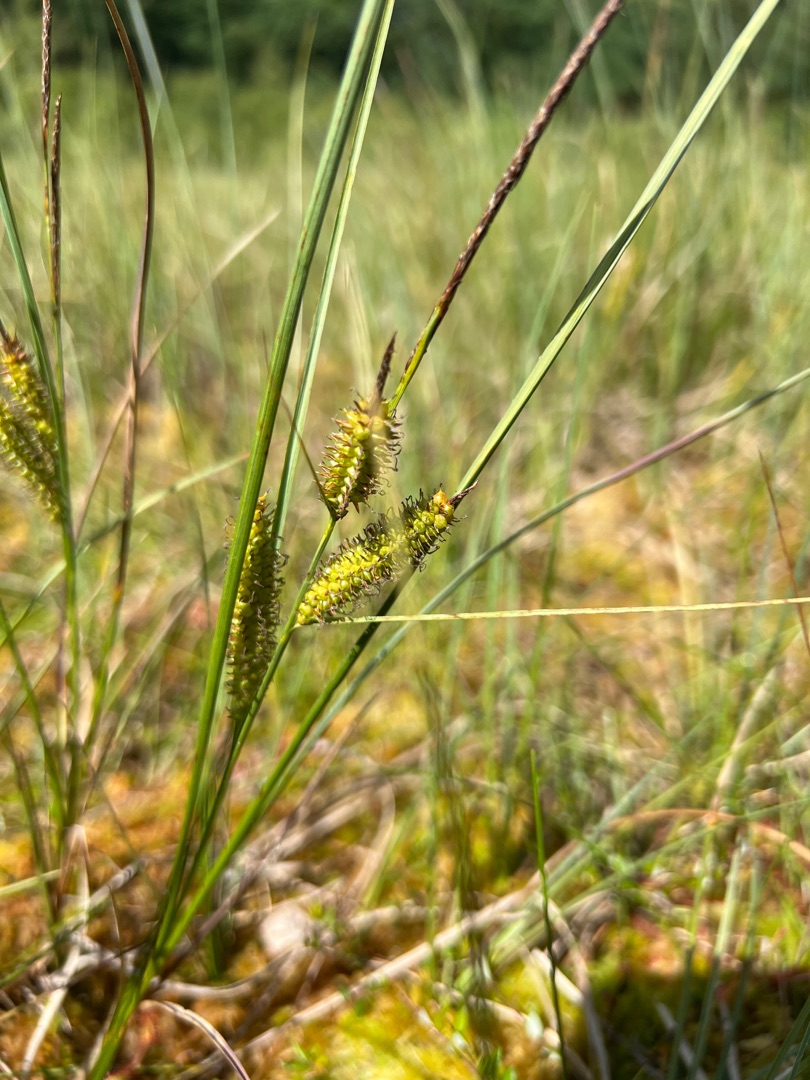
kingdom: Plantae
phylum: Tracheophyta
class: Liliopsida
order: Poales
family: Cyperaceae
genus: Carex
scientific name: Carex rostrata
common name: Næb-star
